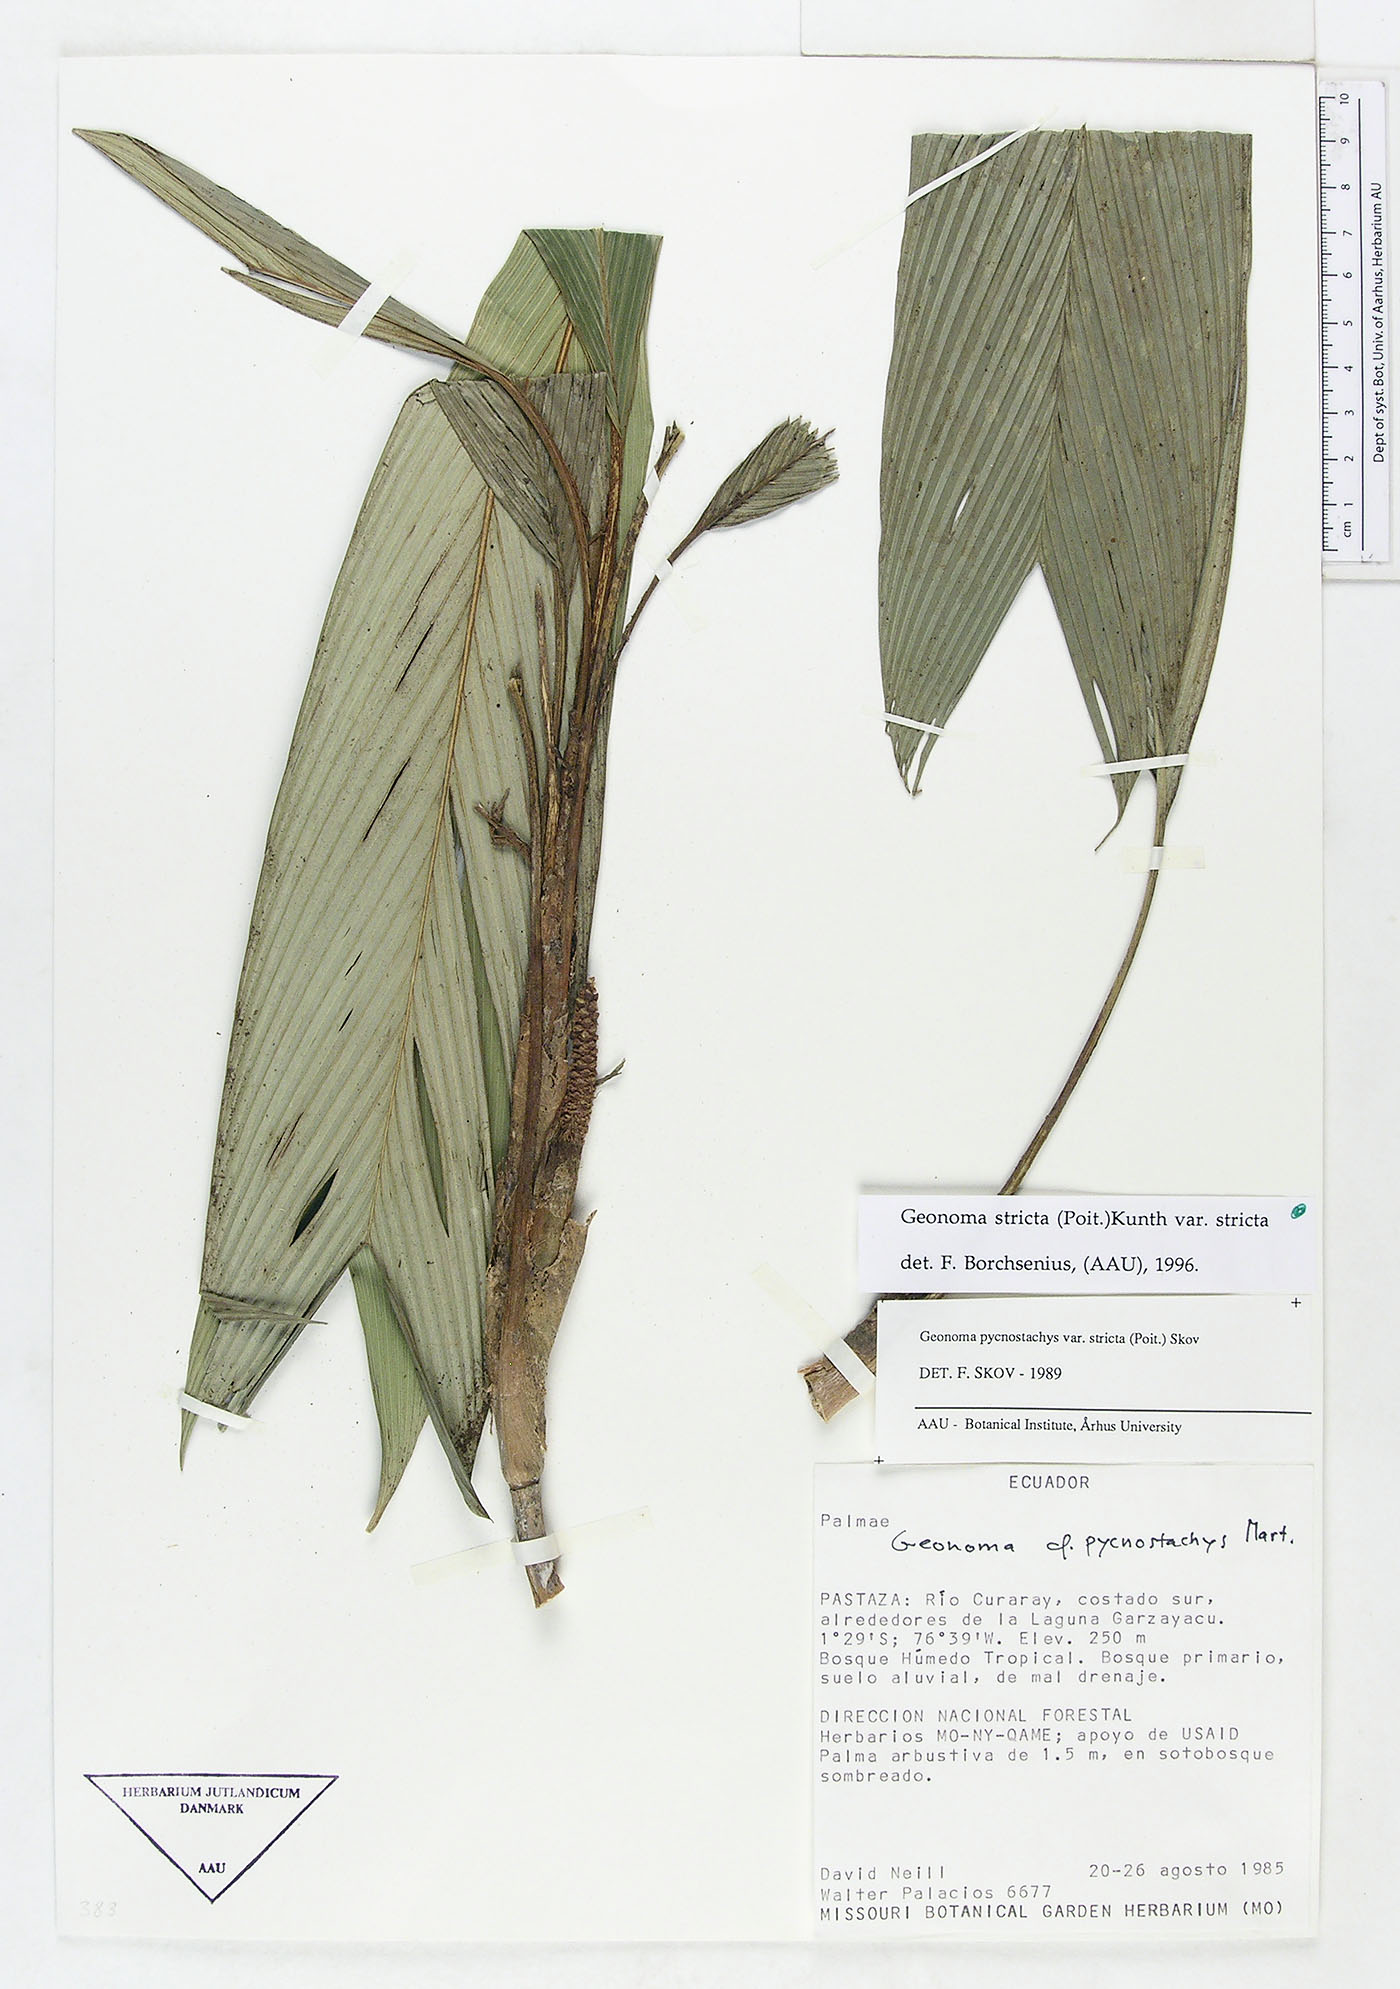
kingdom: Plantae
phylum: Tracheophyta
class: Liliopsida
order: Arecales
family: Arecaceae
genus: Geonoma
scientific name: Geonoma stricta
